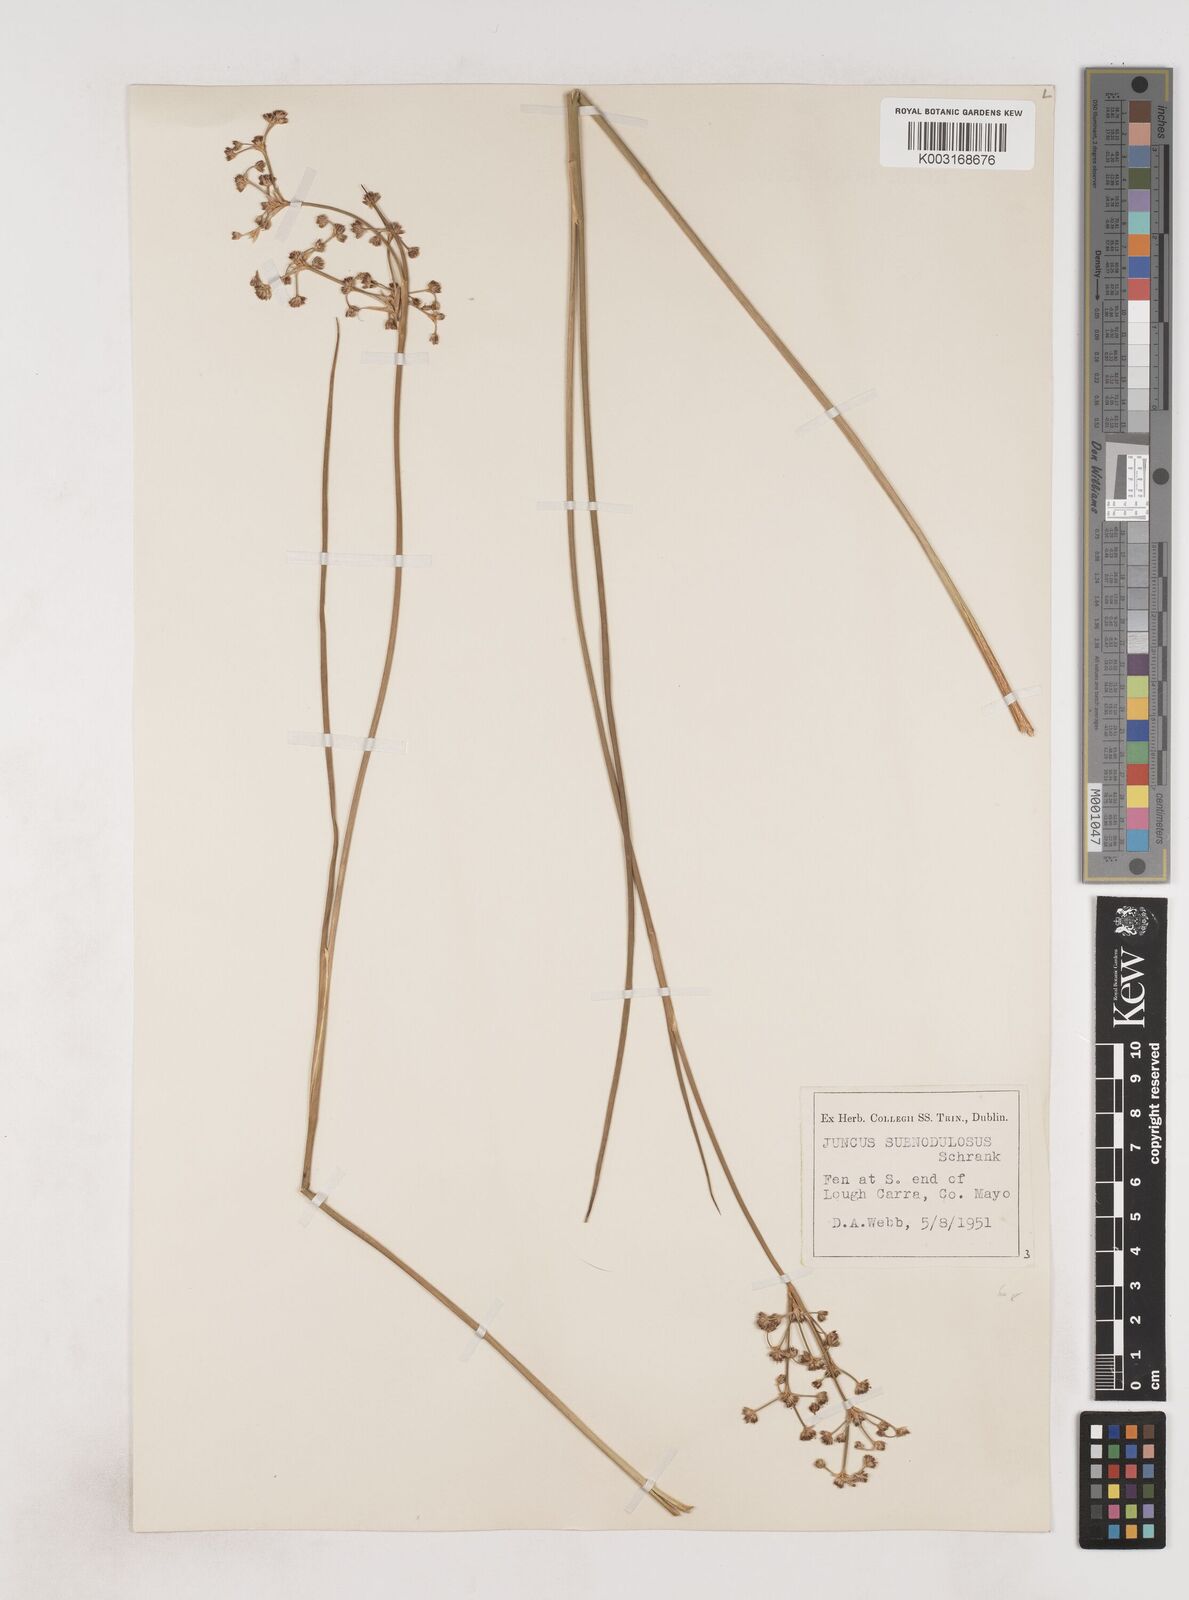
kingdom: Plantae
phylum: Tracheophyta
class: Liliopsida
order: Poales
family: Juncaceae
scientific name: Juncaceae
